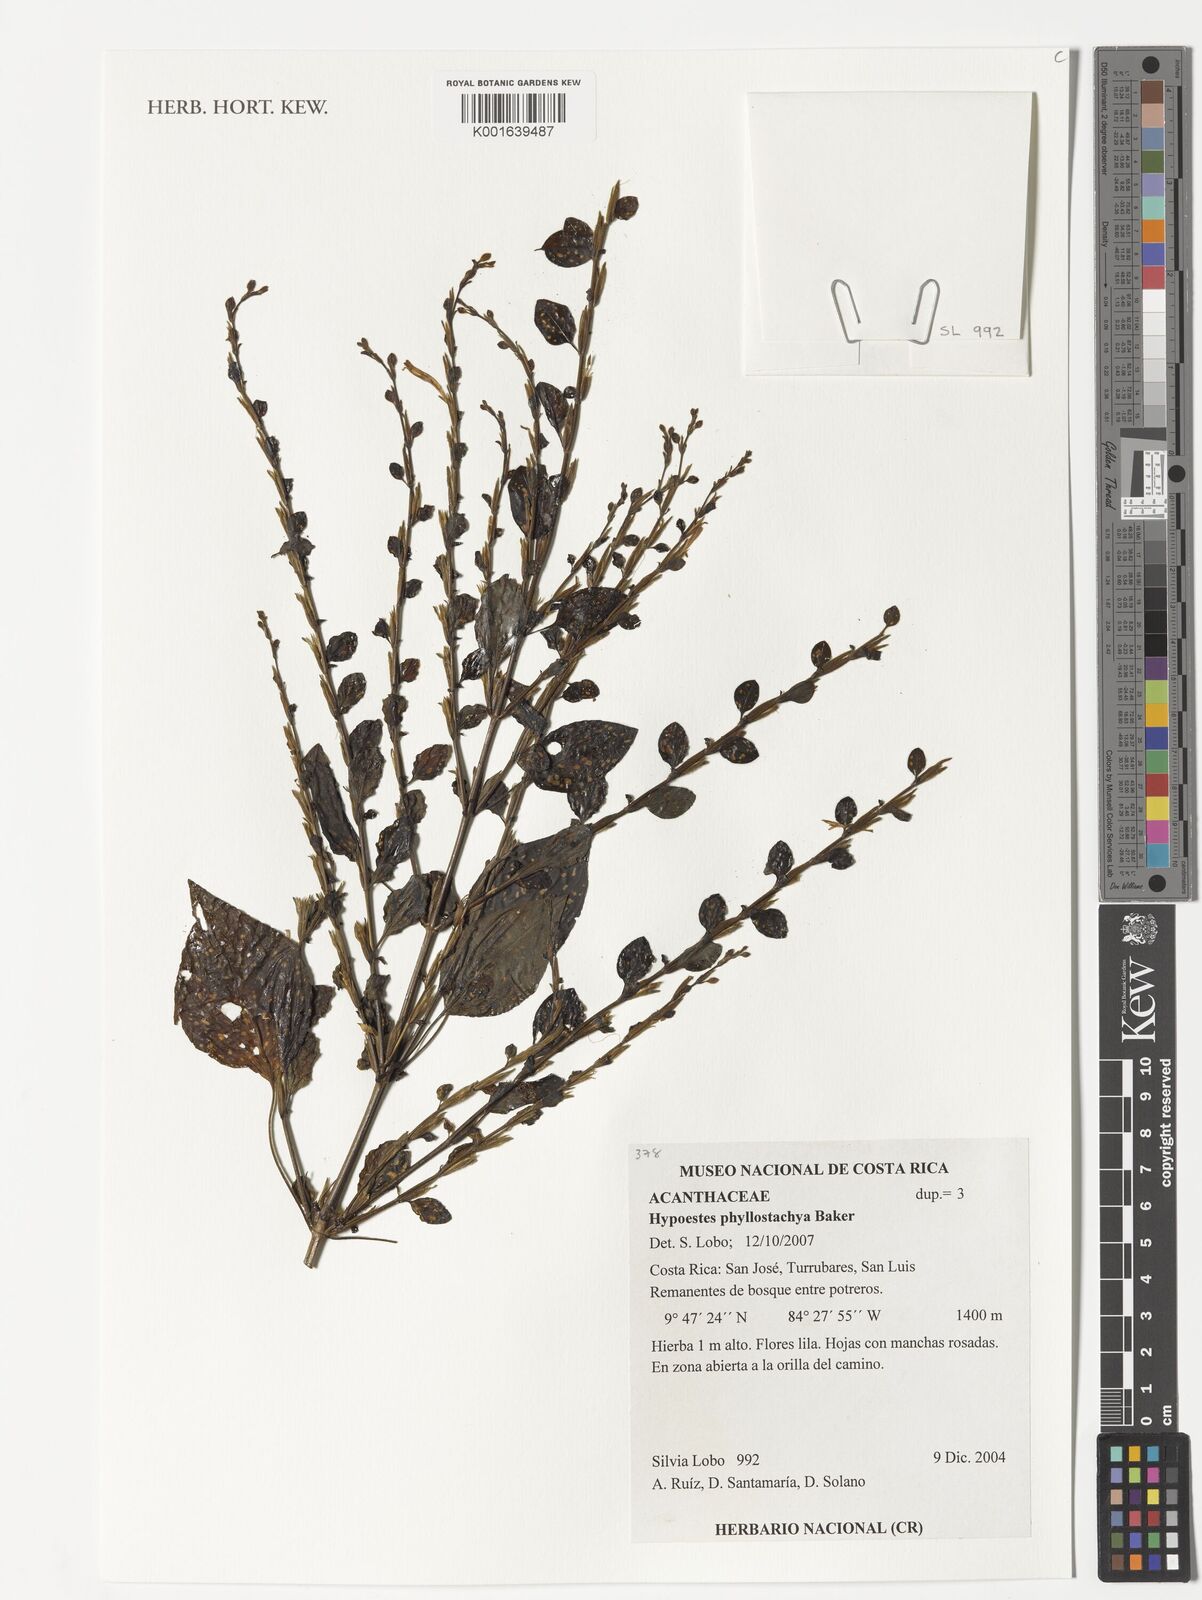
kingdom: Plantae
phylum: Tracheophyta
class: Magnoliopsida
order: Lamiales
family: Acanthaceae
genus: Hypoestes
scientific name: Hypoestes phyllostachya
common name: Polkadot-plant
